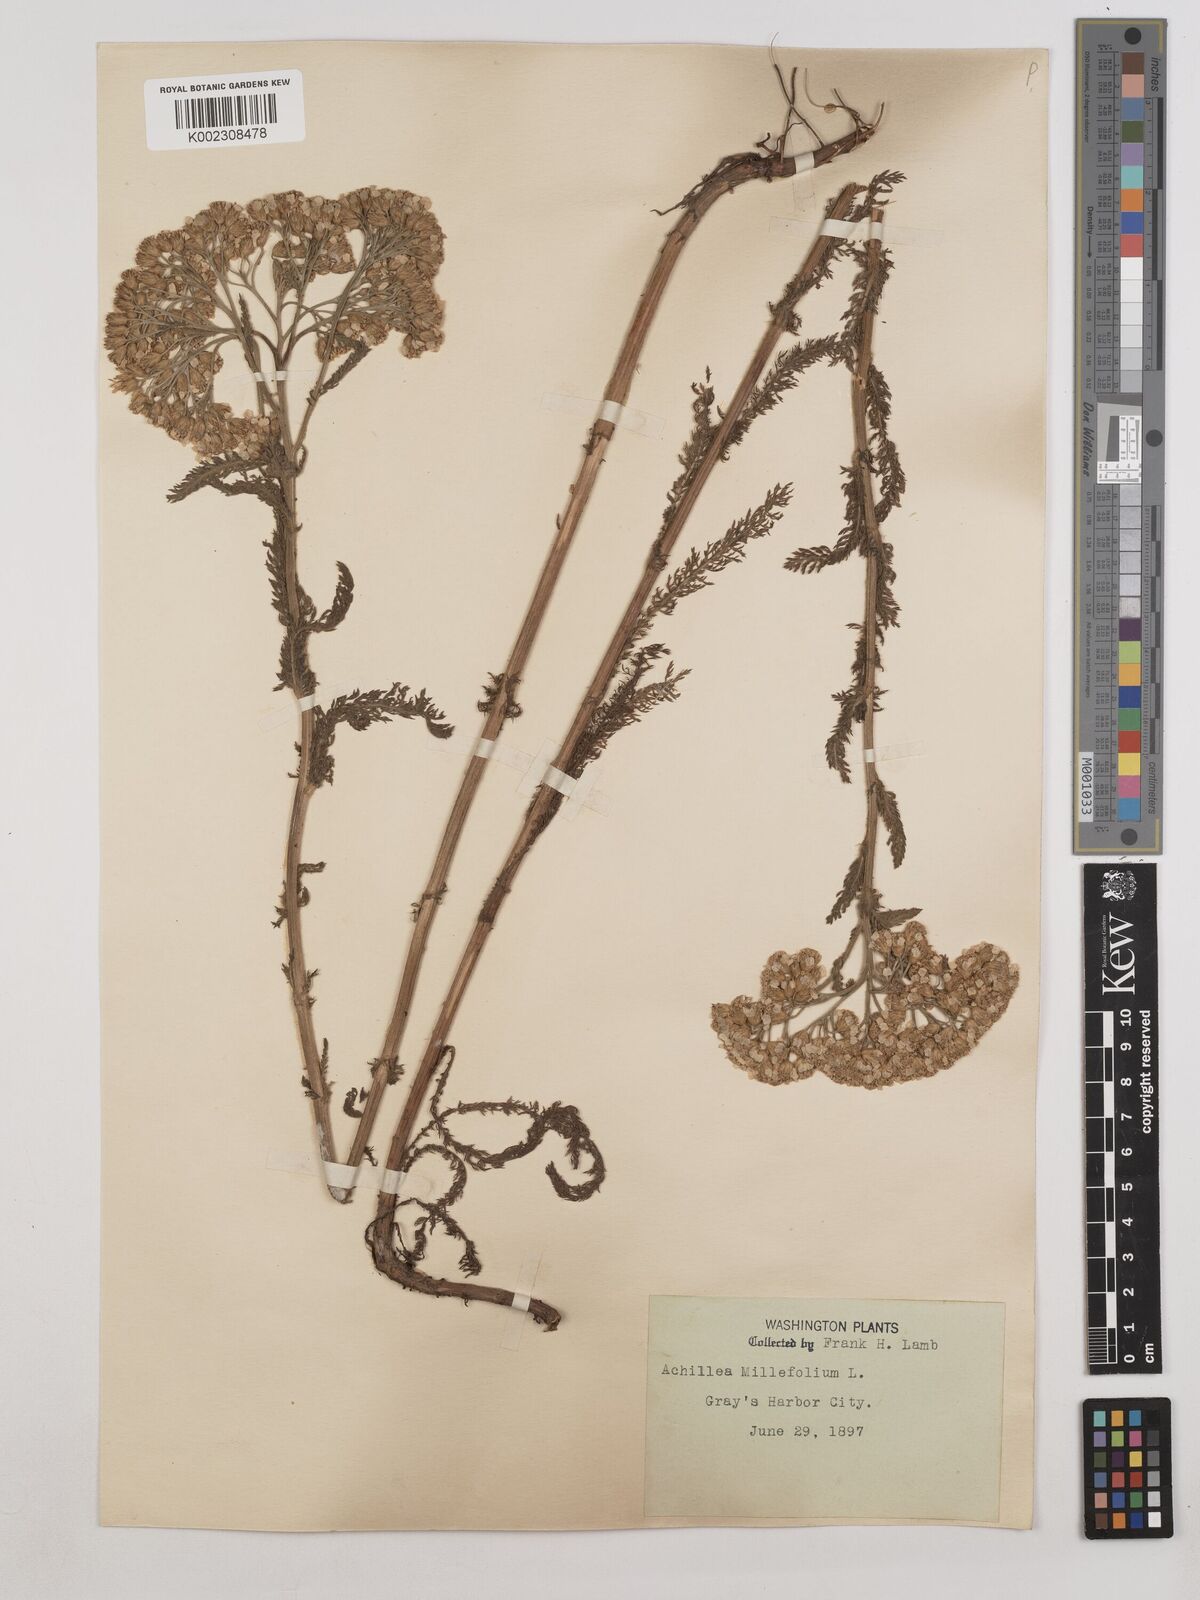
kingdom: Plantae
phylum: Tracheophyta
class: Magnoliopsida
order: Asterales
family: Asteraceae
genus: Achillea
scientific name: Achillea millefolium
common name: Yarrow
